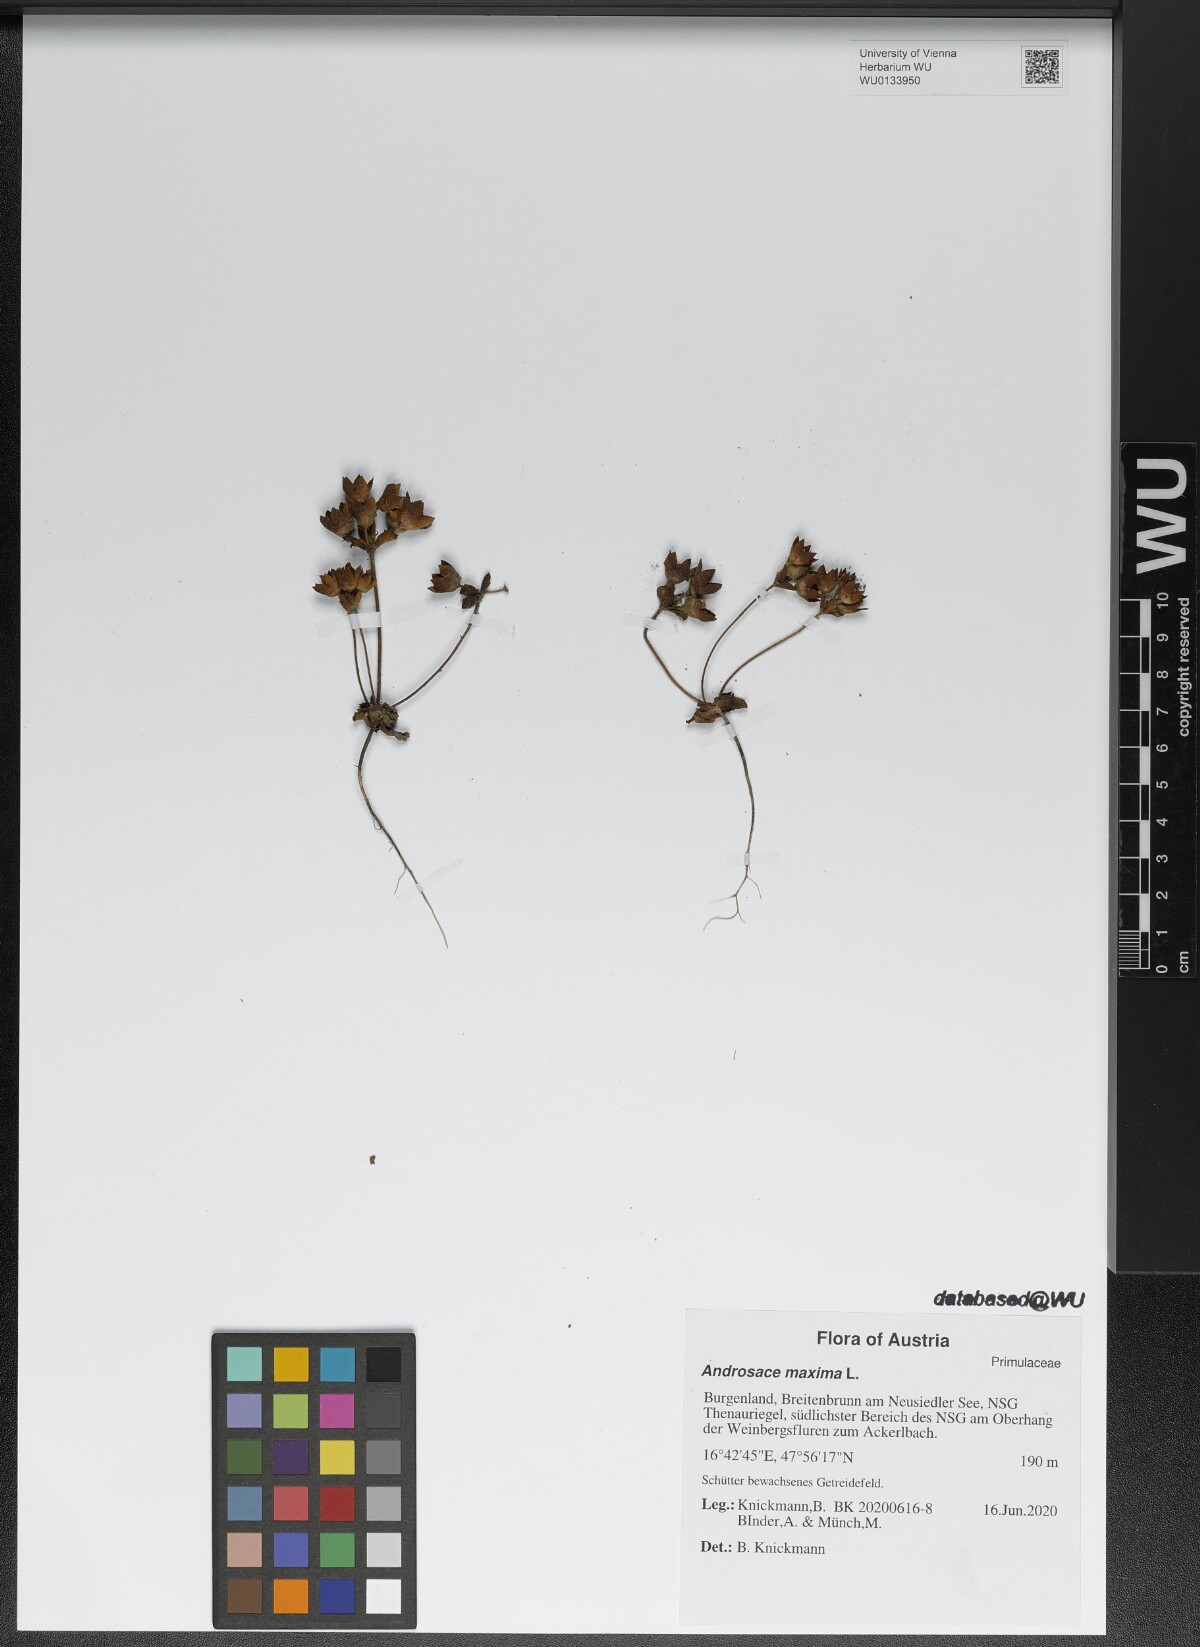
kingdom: Plantae
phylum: Tracheophyta
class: Magnoliopsida
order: Ericales
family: Primulaceae
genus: Androsace
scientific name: Androsace maxima
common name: Annual androsace
